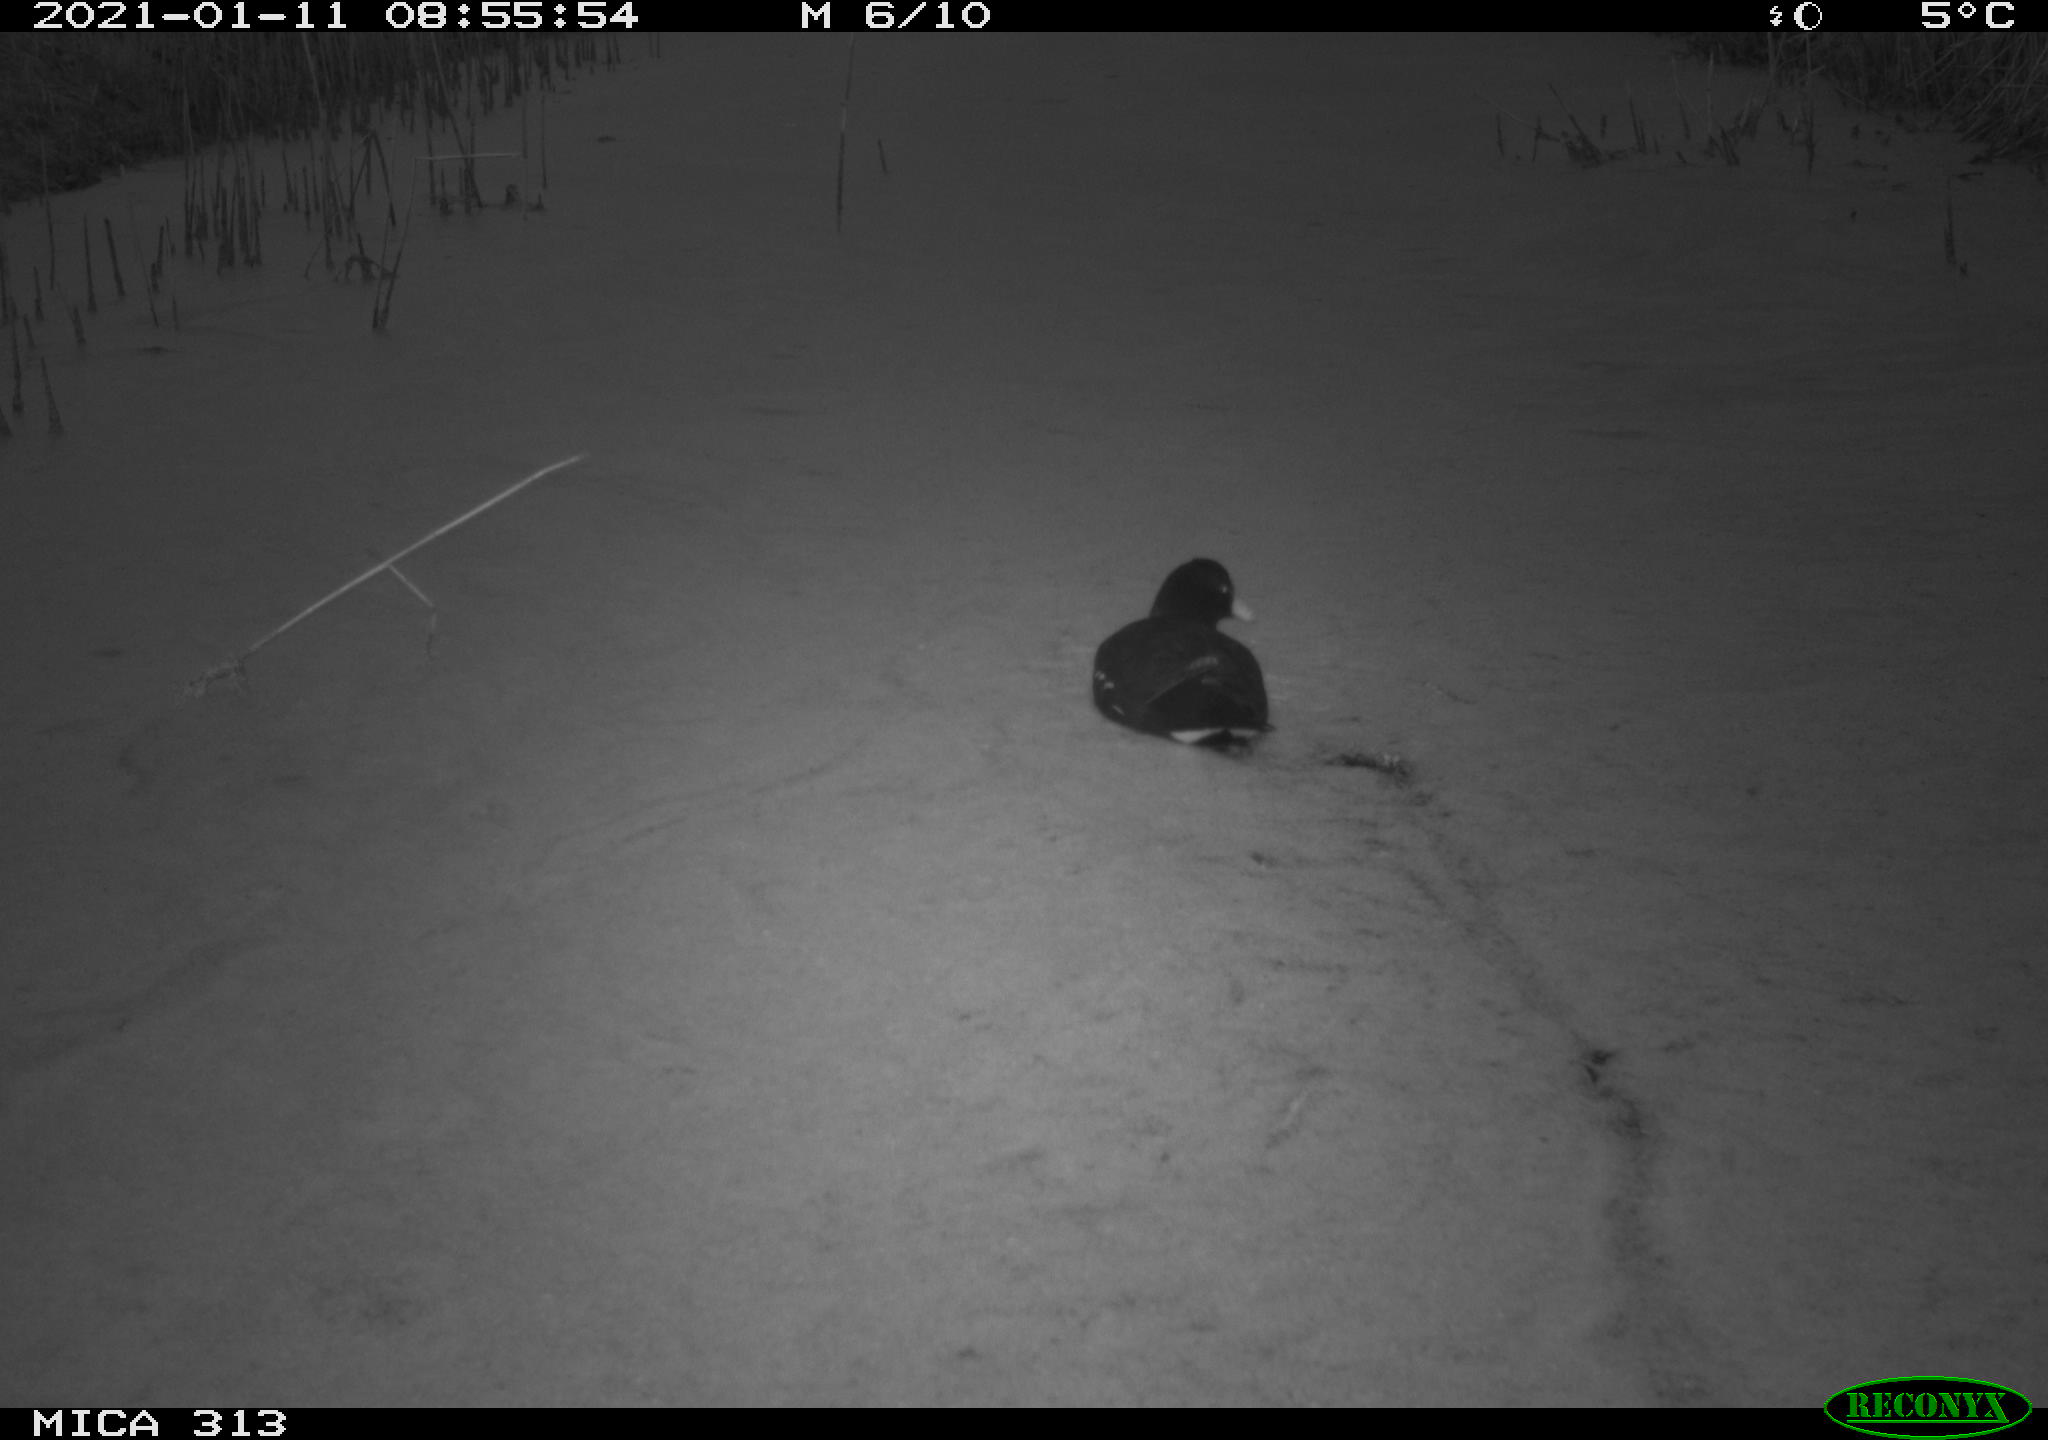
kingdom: Animalia
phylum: Chordata
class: Aves
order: Gruiformes
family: Rallidae
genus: Gallinula
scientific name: Gallinula chloropus
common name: Common moorhen
